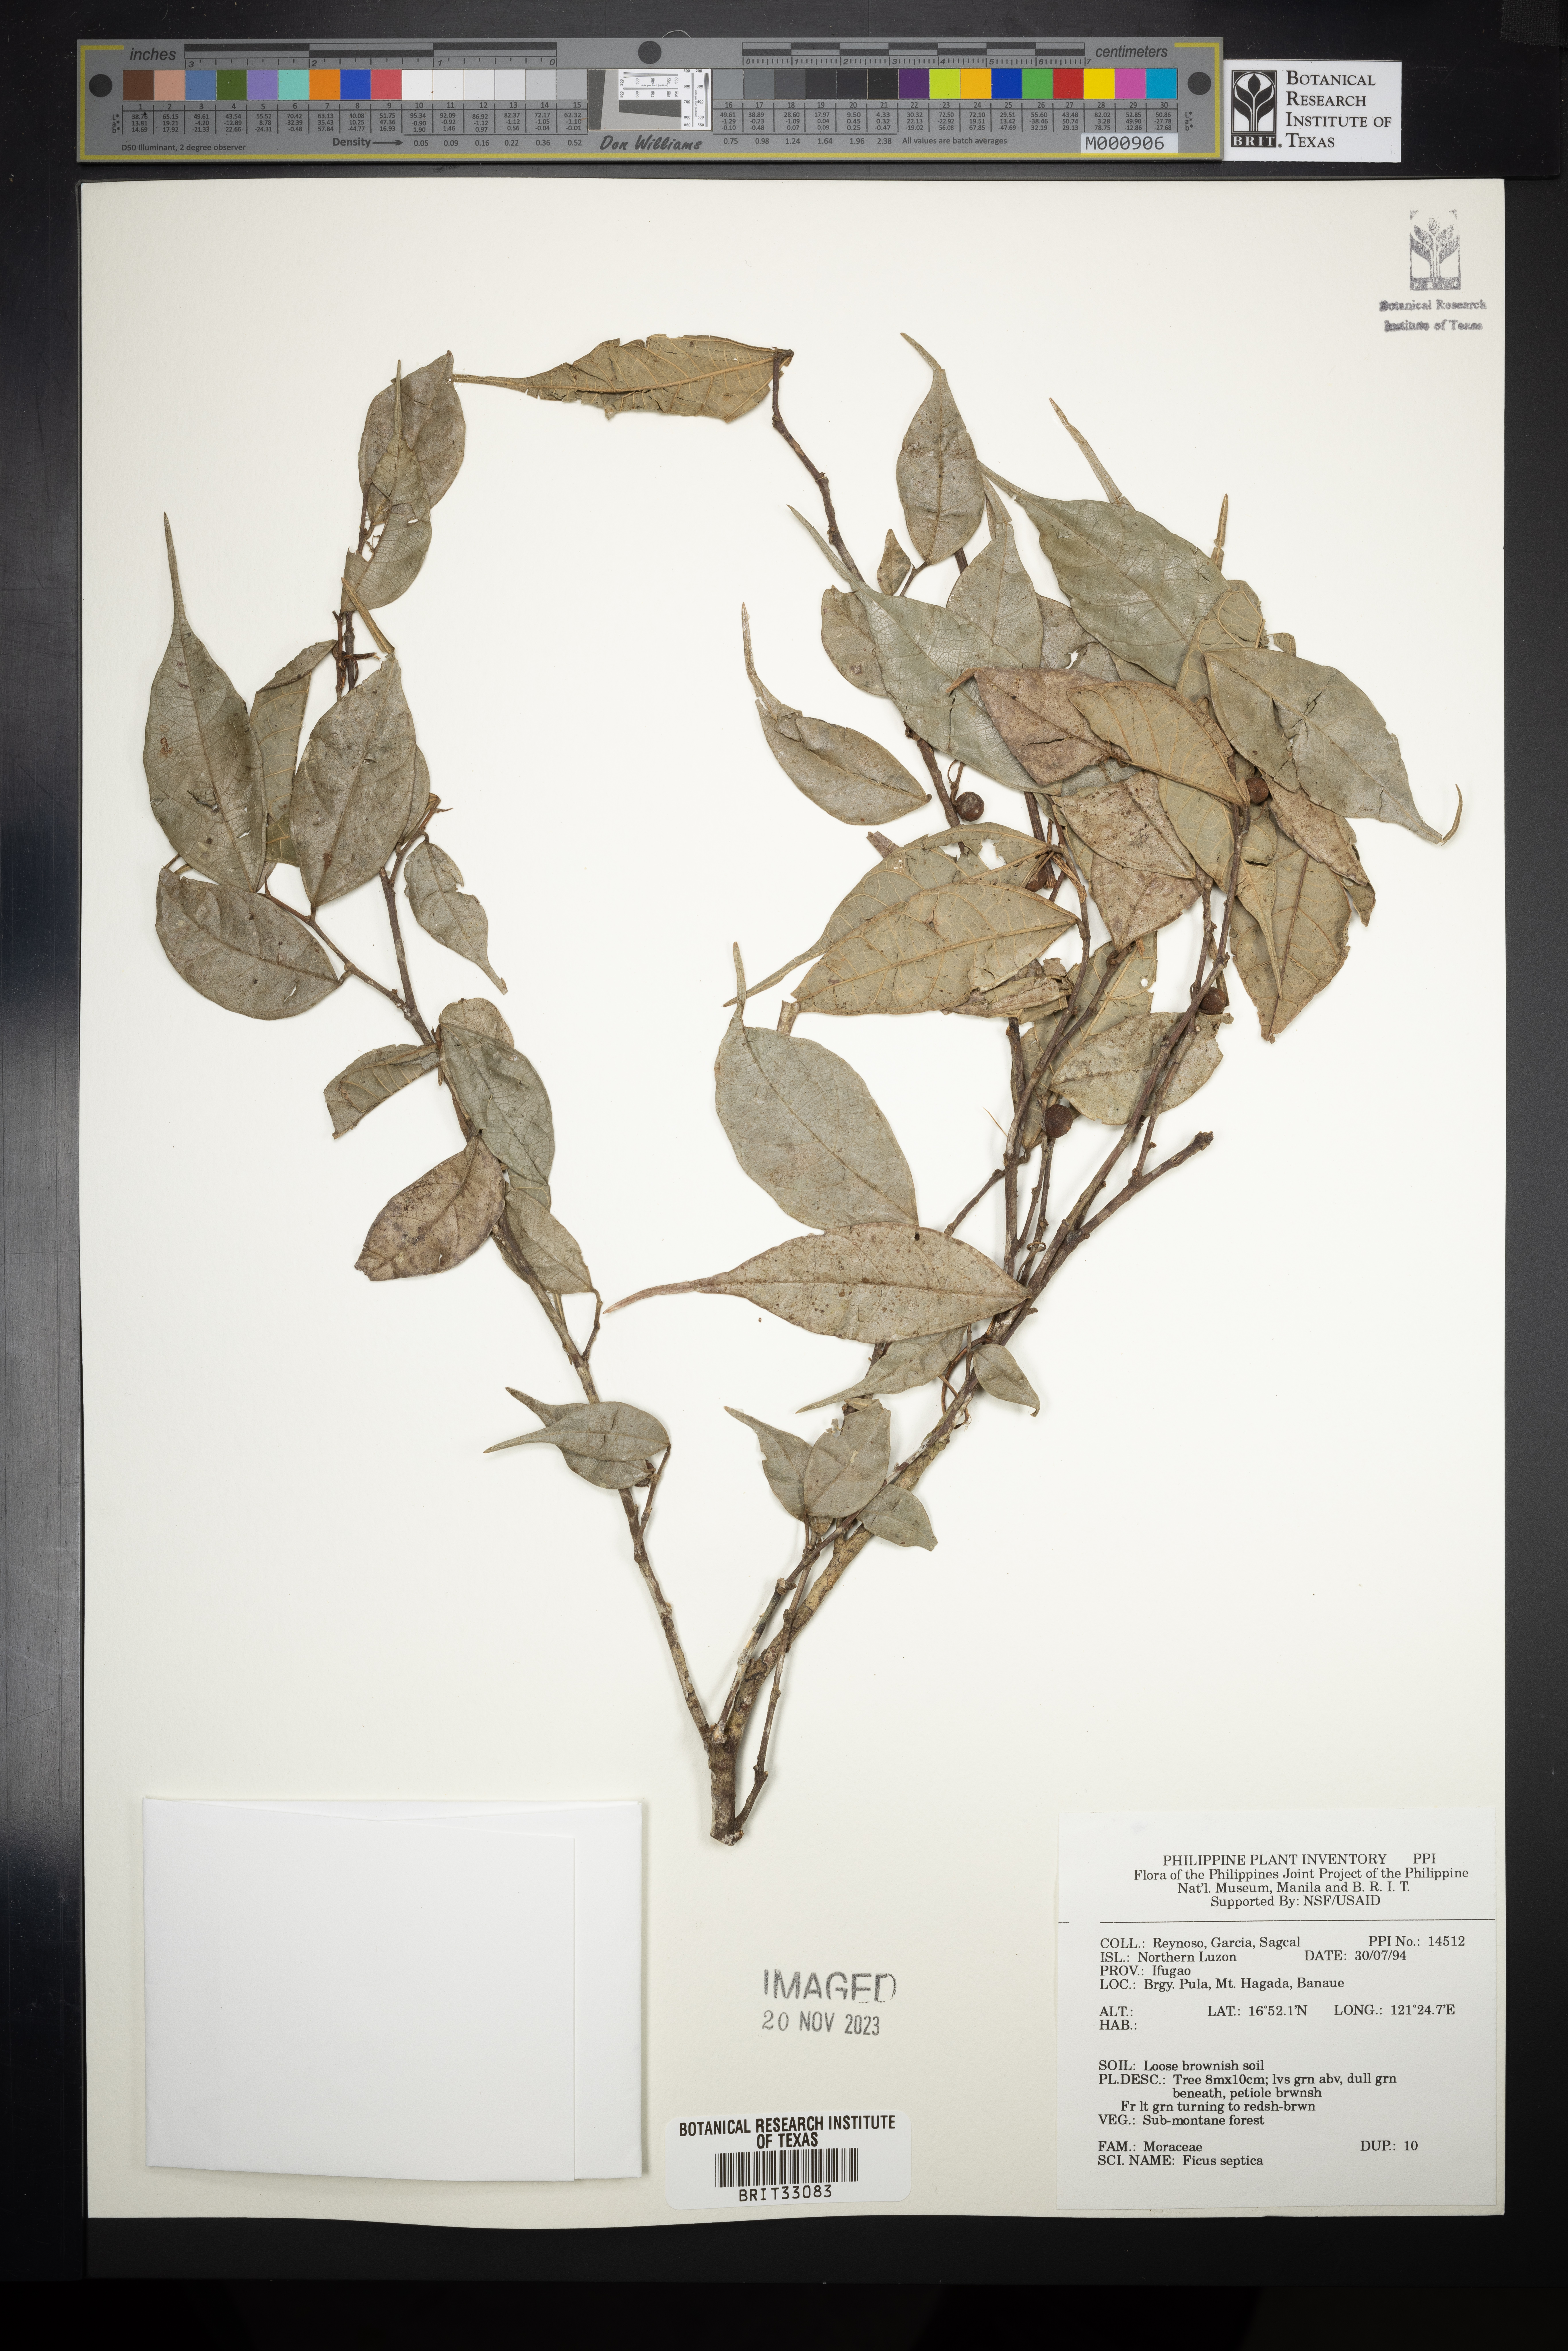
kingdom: Plantae
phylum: Tracheophyta
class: Magnoliopsida
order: Rosales
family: Moraceae
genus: Ficus
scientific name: Ficus septica
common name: Septic fig
